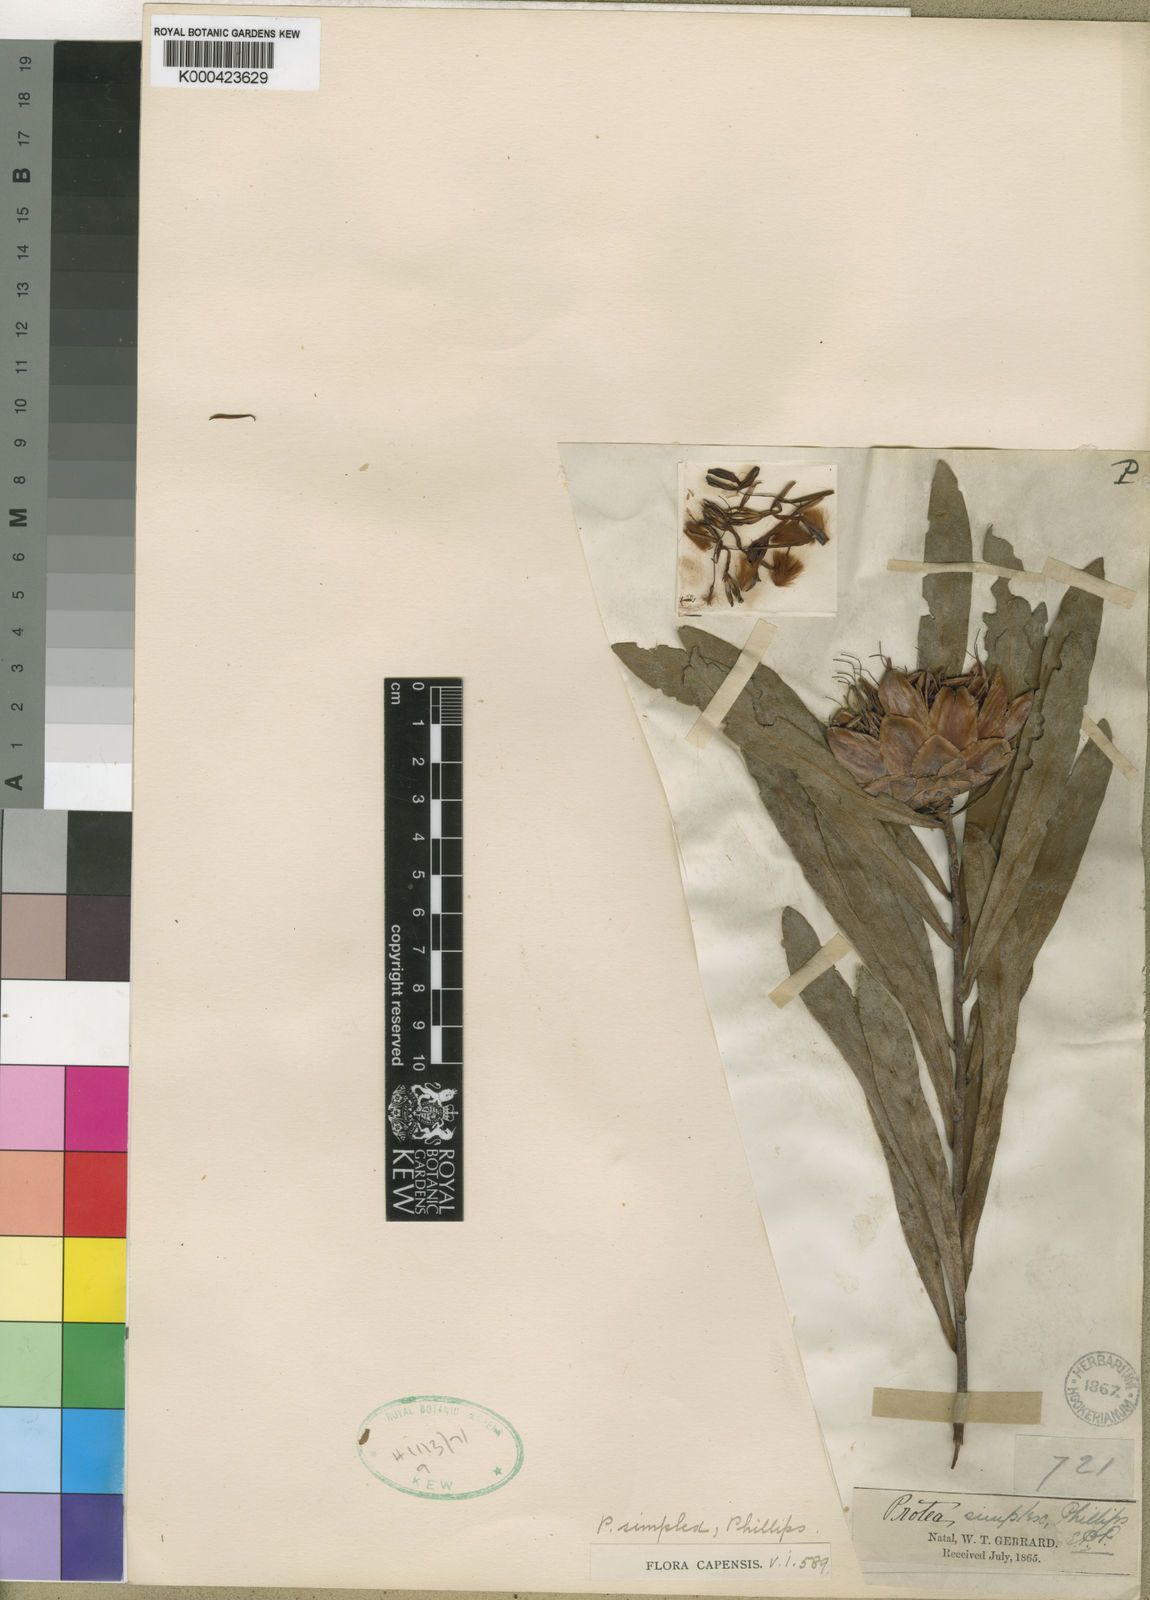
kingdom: Plantae
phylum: Tracheophyta
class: Magnoliopsida
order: Proteales
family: Proteaceae
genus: Protea
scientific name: Protea simplex
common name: Dwarf grassveld sugarbush
